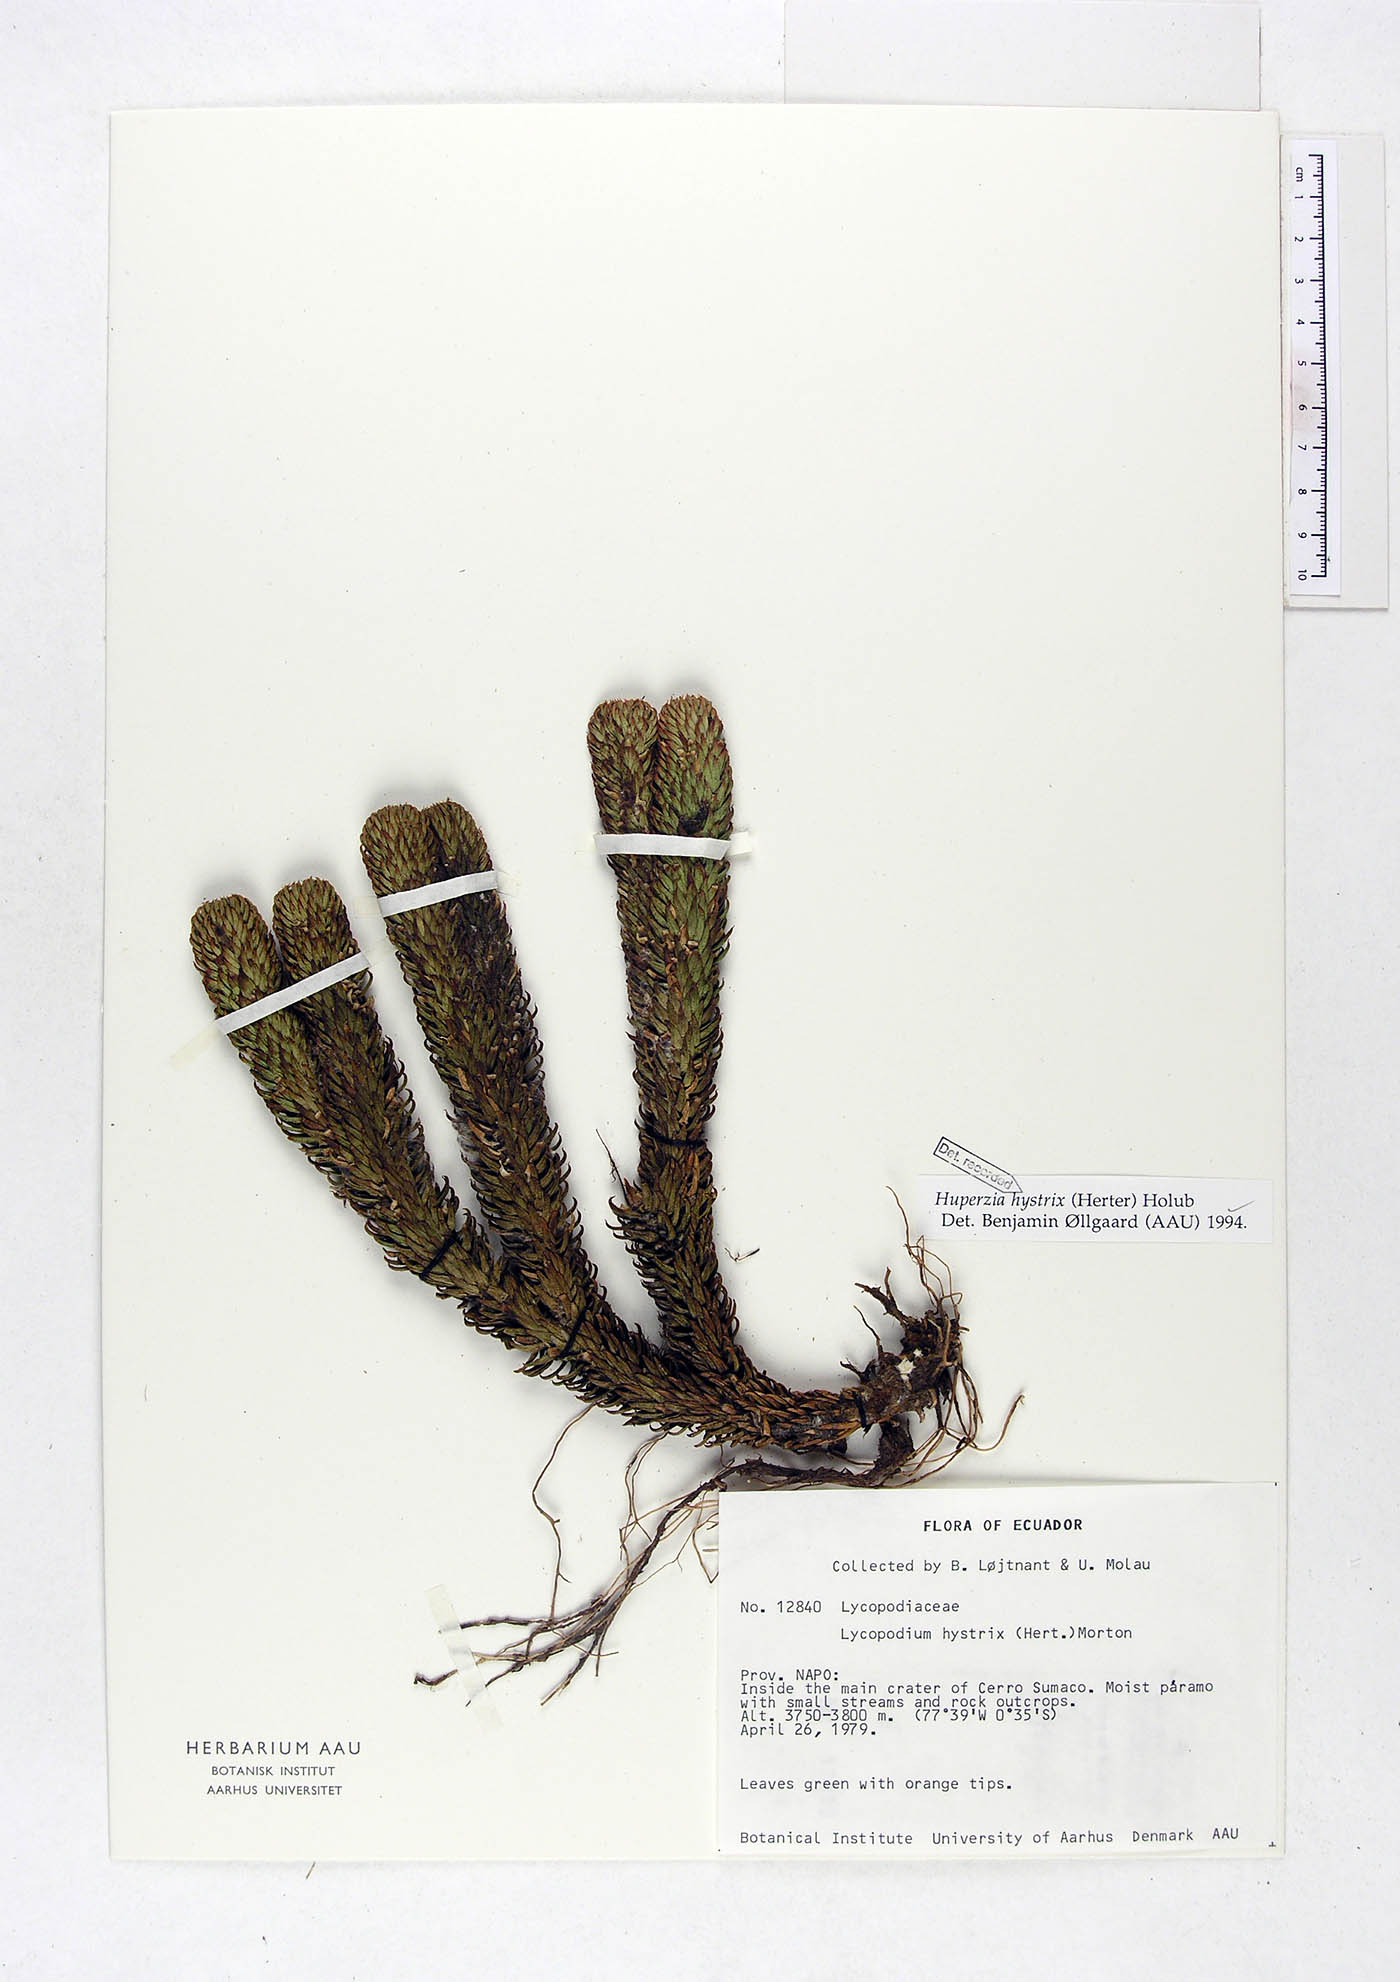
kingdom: Plantae
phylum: Tracheophyta
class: Lycopodiopsida
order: Lycopodiales
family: Lycopodiaceae
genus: Phlegmariurus
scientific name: Phlegmariurus hystrix
